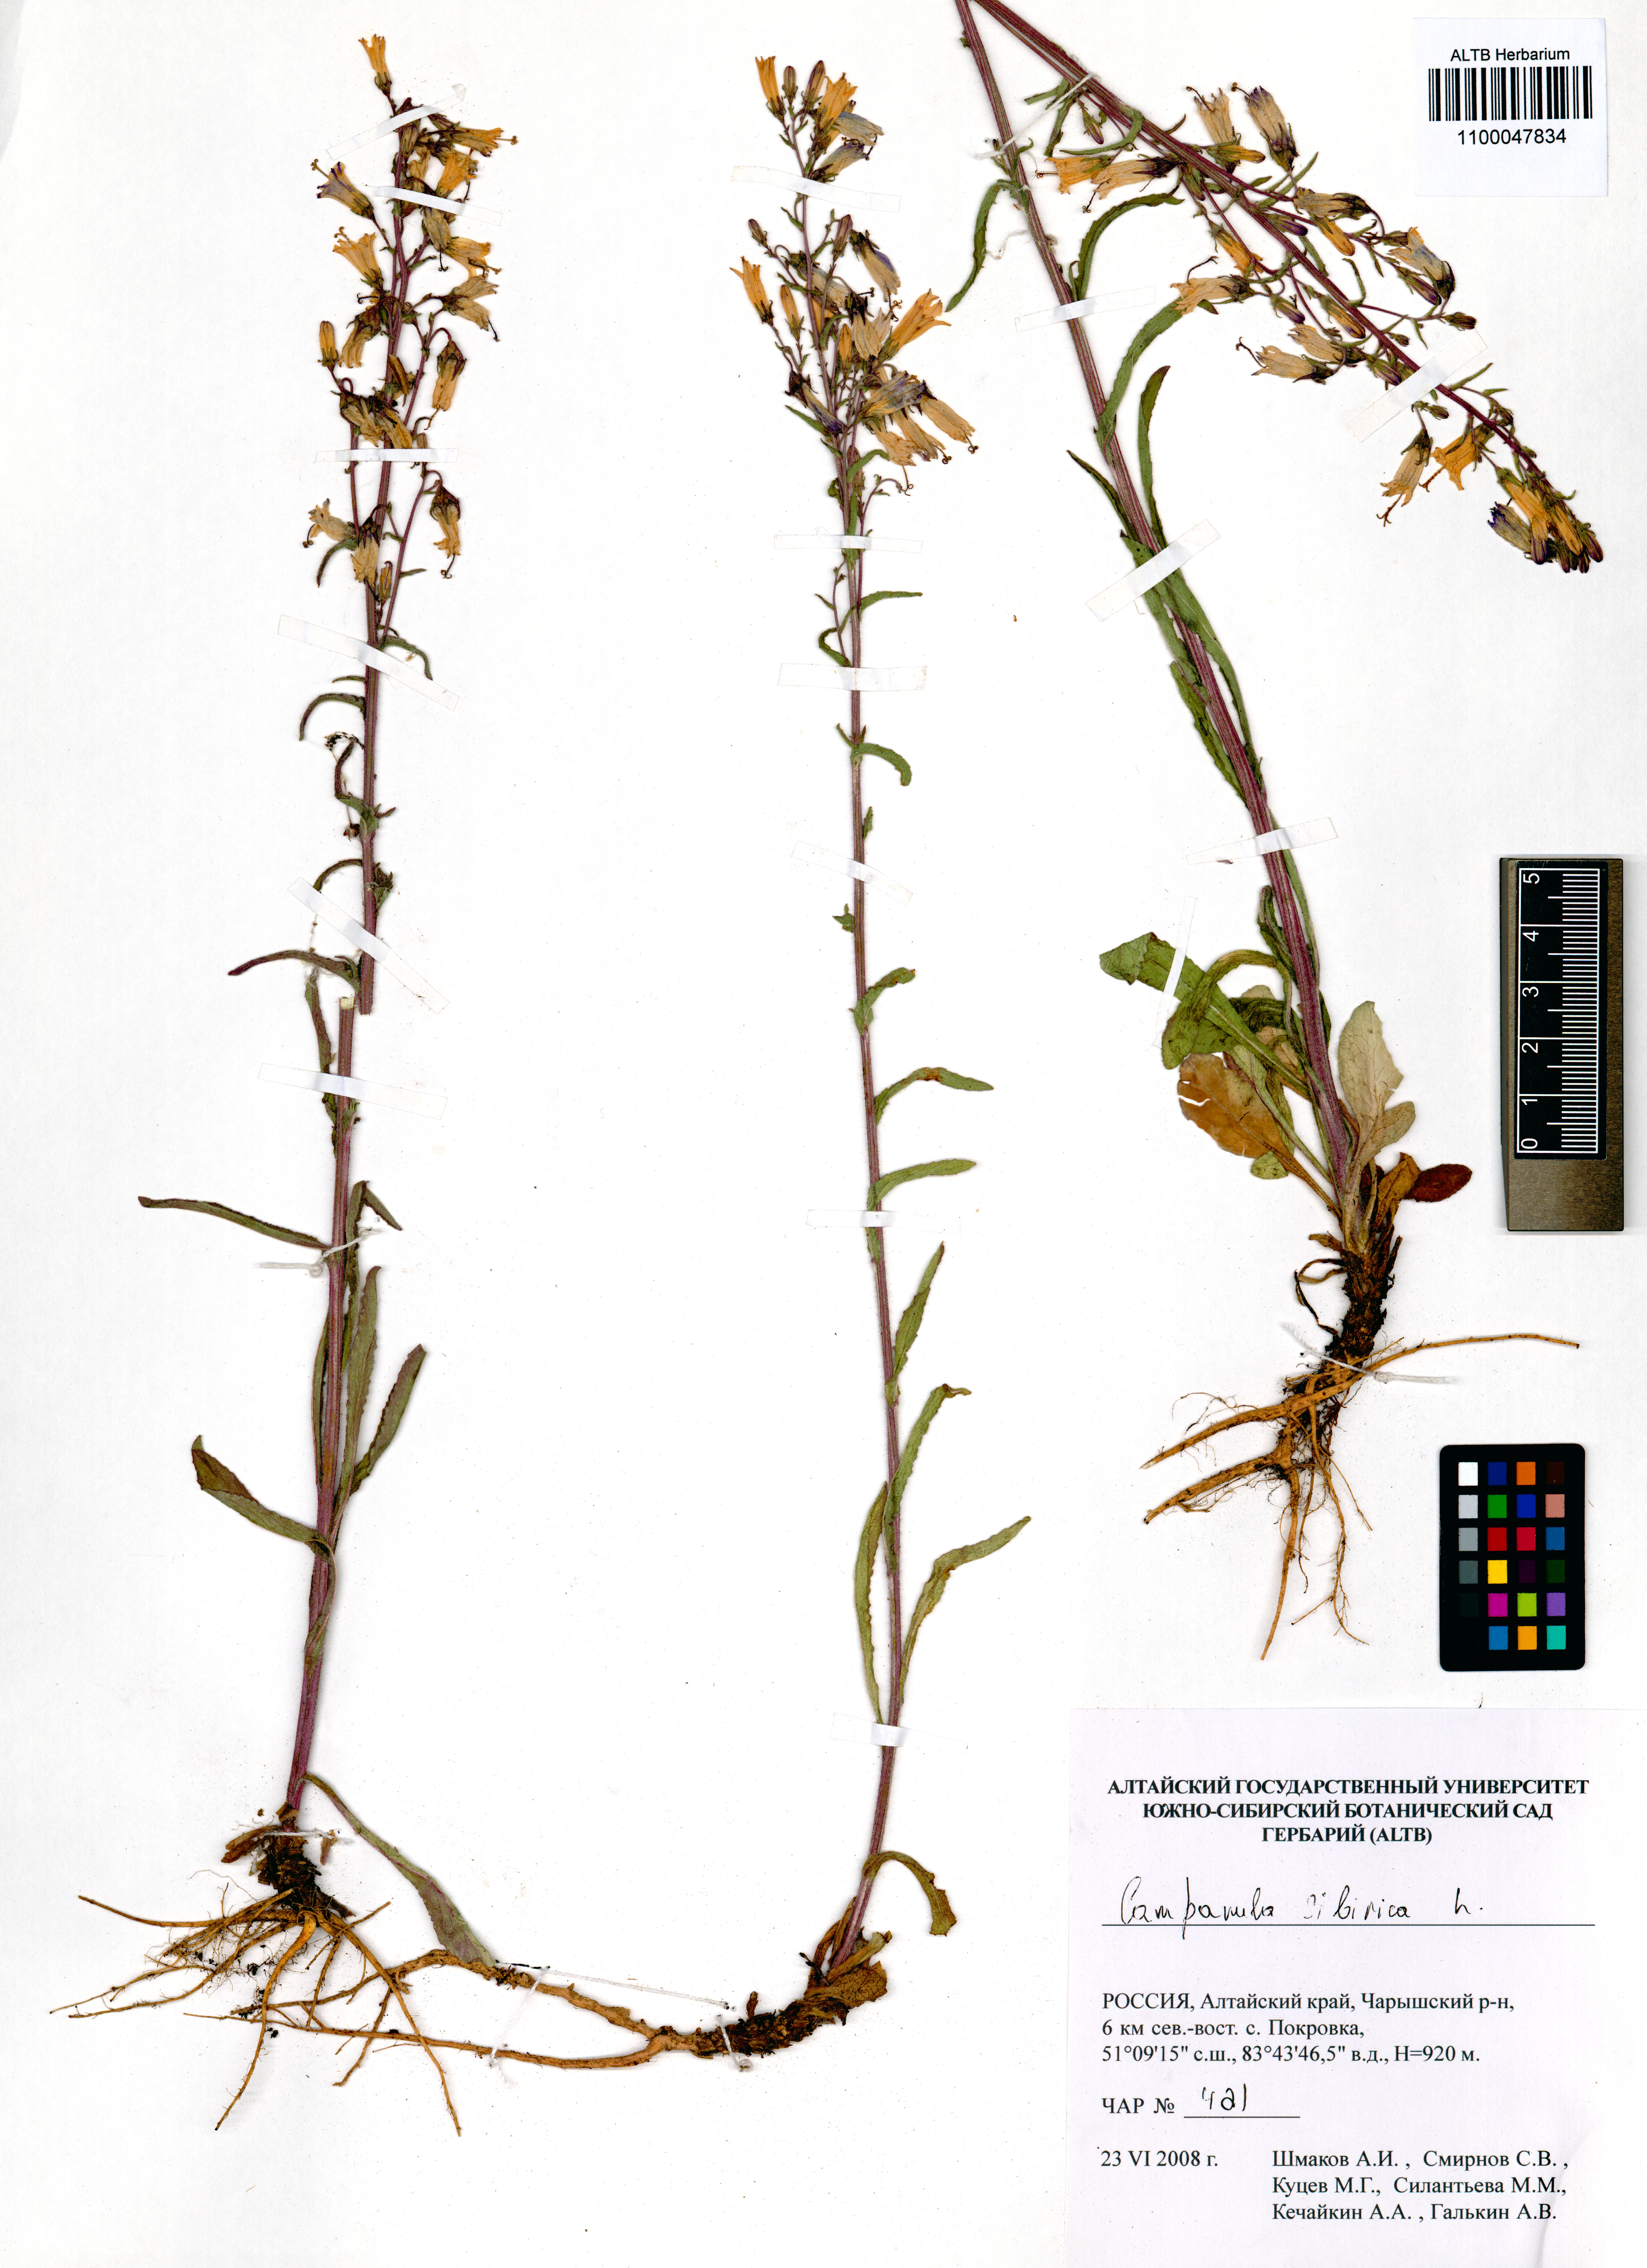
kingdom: Plantae
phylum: Tracheophyta
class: Magnoliopsida
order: Asterales
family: Campanulaceae
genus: Campanula
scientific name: Campanula sibirica
